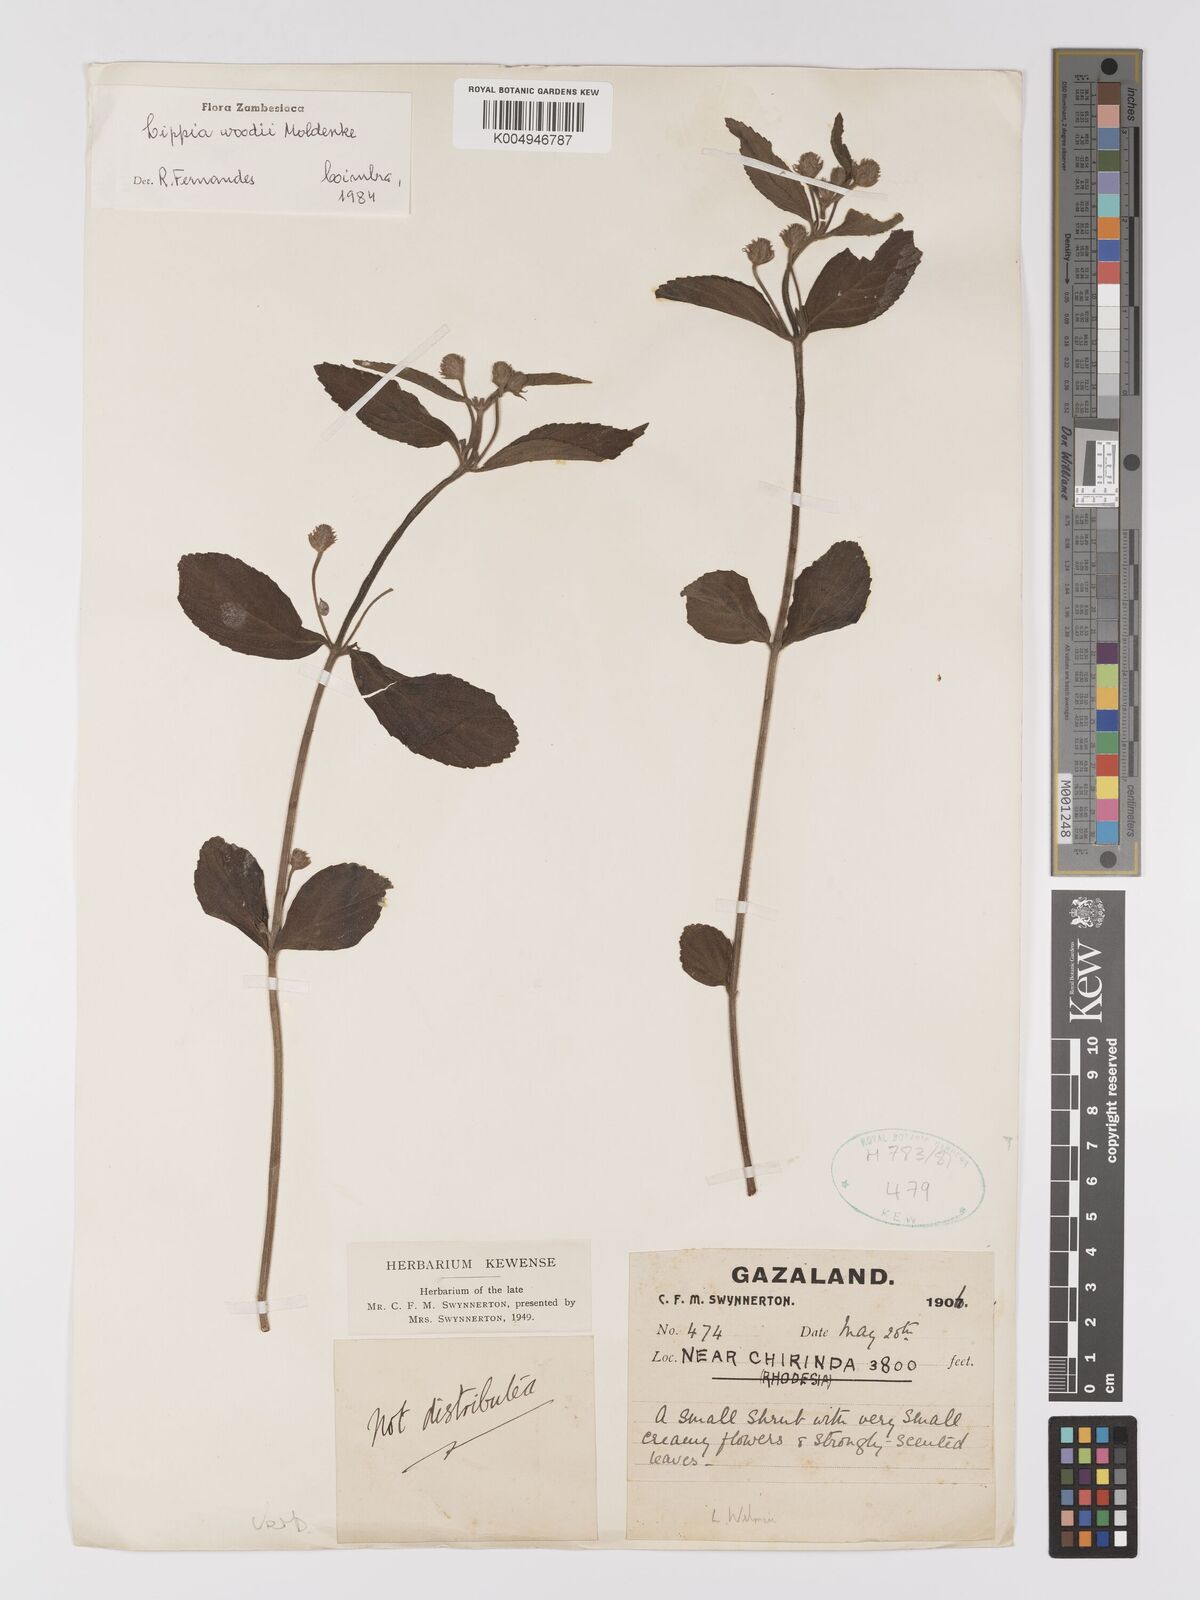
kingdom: Plantae
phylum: Tracheophyta
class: Magnoliopsida
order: Lamiales
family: Verbenaceae
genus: Lippia
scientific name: Lippia woodii
